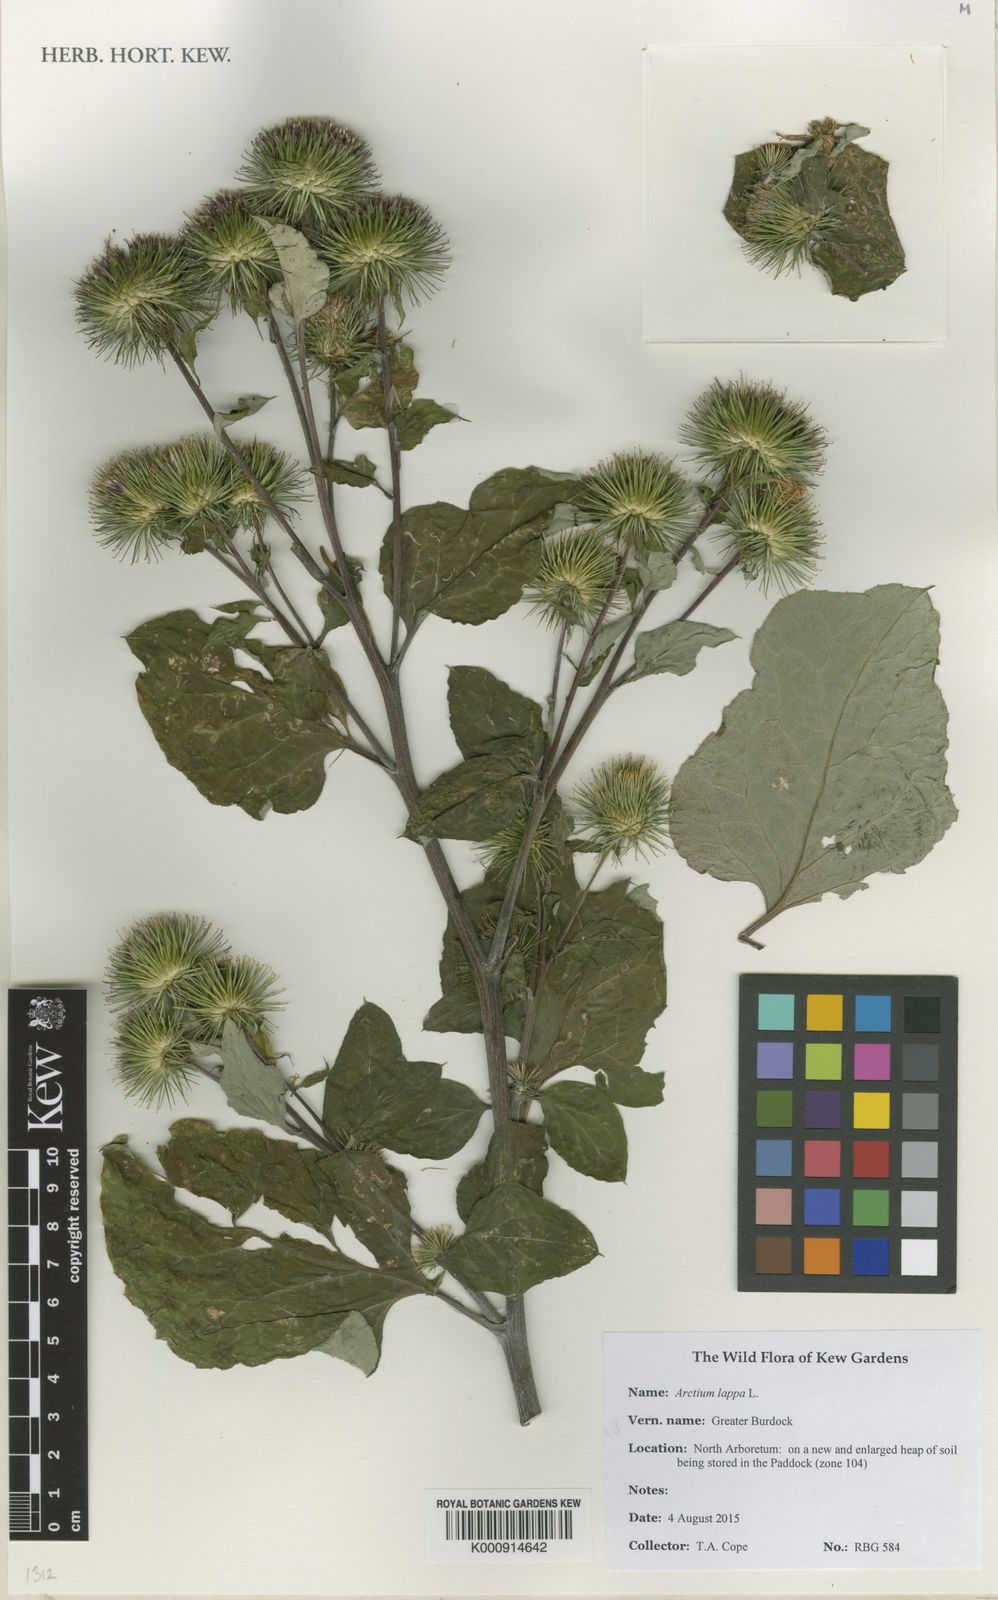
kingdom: Plantae
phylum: Tracheophyta
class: Magnoliopsida
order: Asterales
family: Asteraceae
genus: Arctium
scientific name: Arctium lappa
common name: Greater burdock
